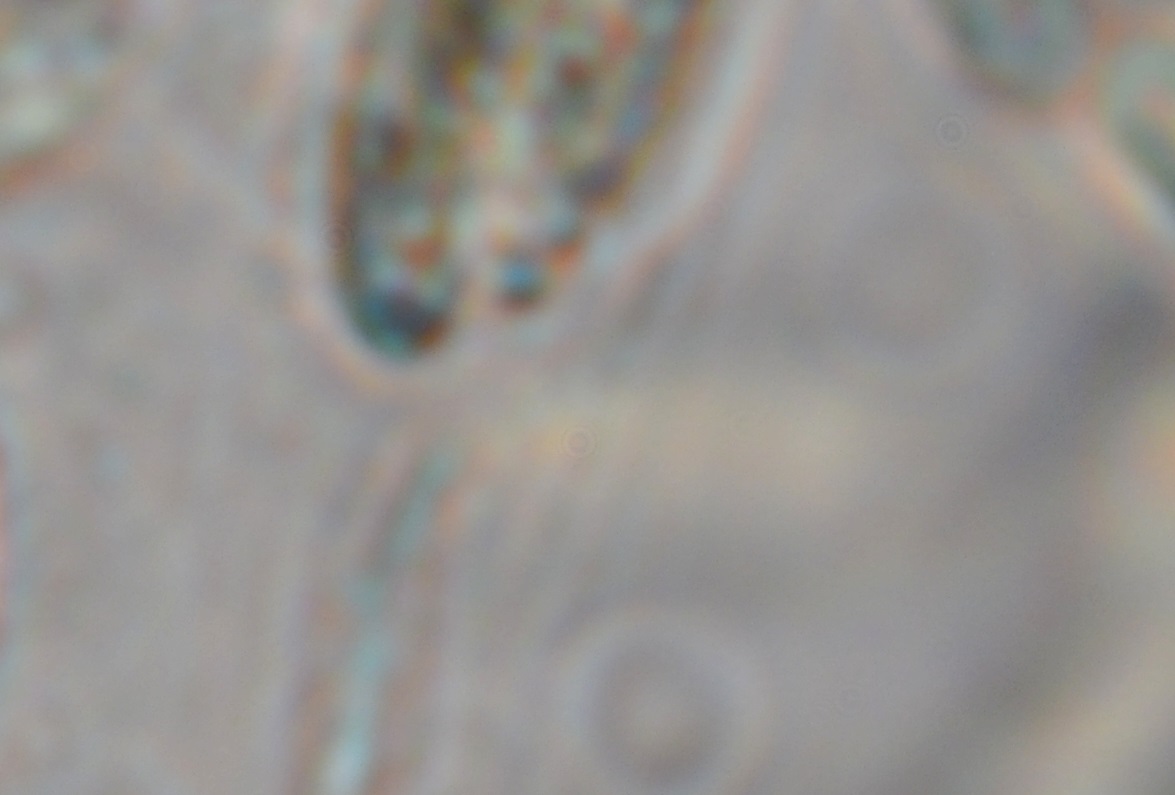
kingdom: Fungi
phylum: Ascomycota
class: Sordariomycetes
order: Xylariales
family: Diatrypaceae
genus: Eutypa
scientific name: Eutypa spinosa
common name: grov kulskorpe
